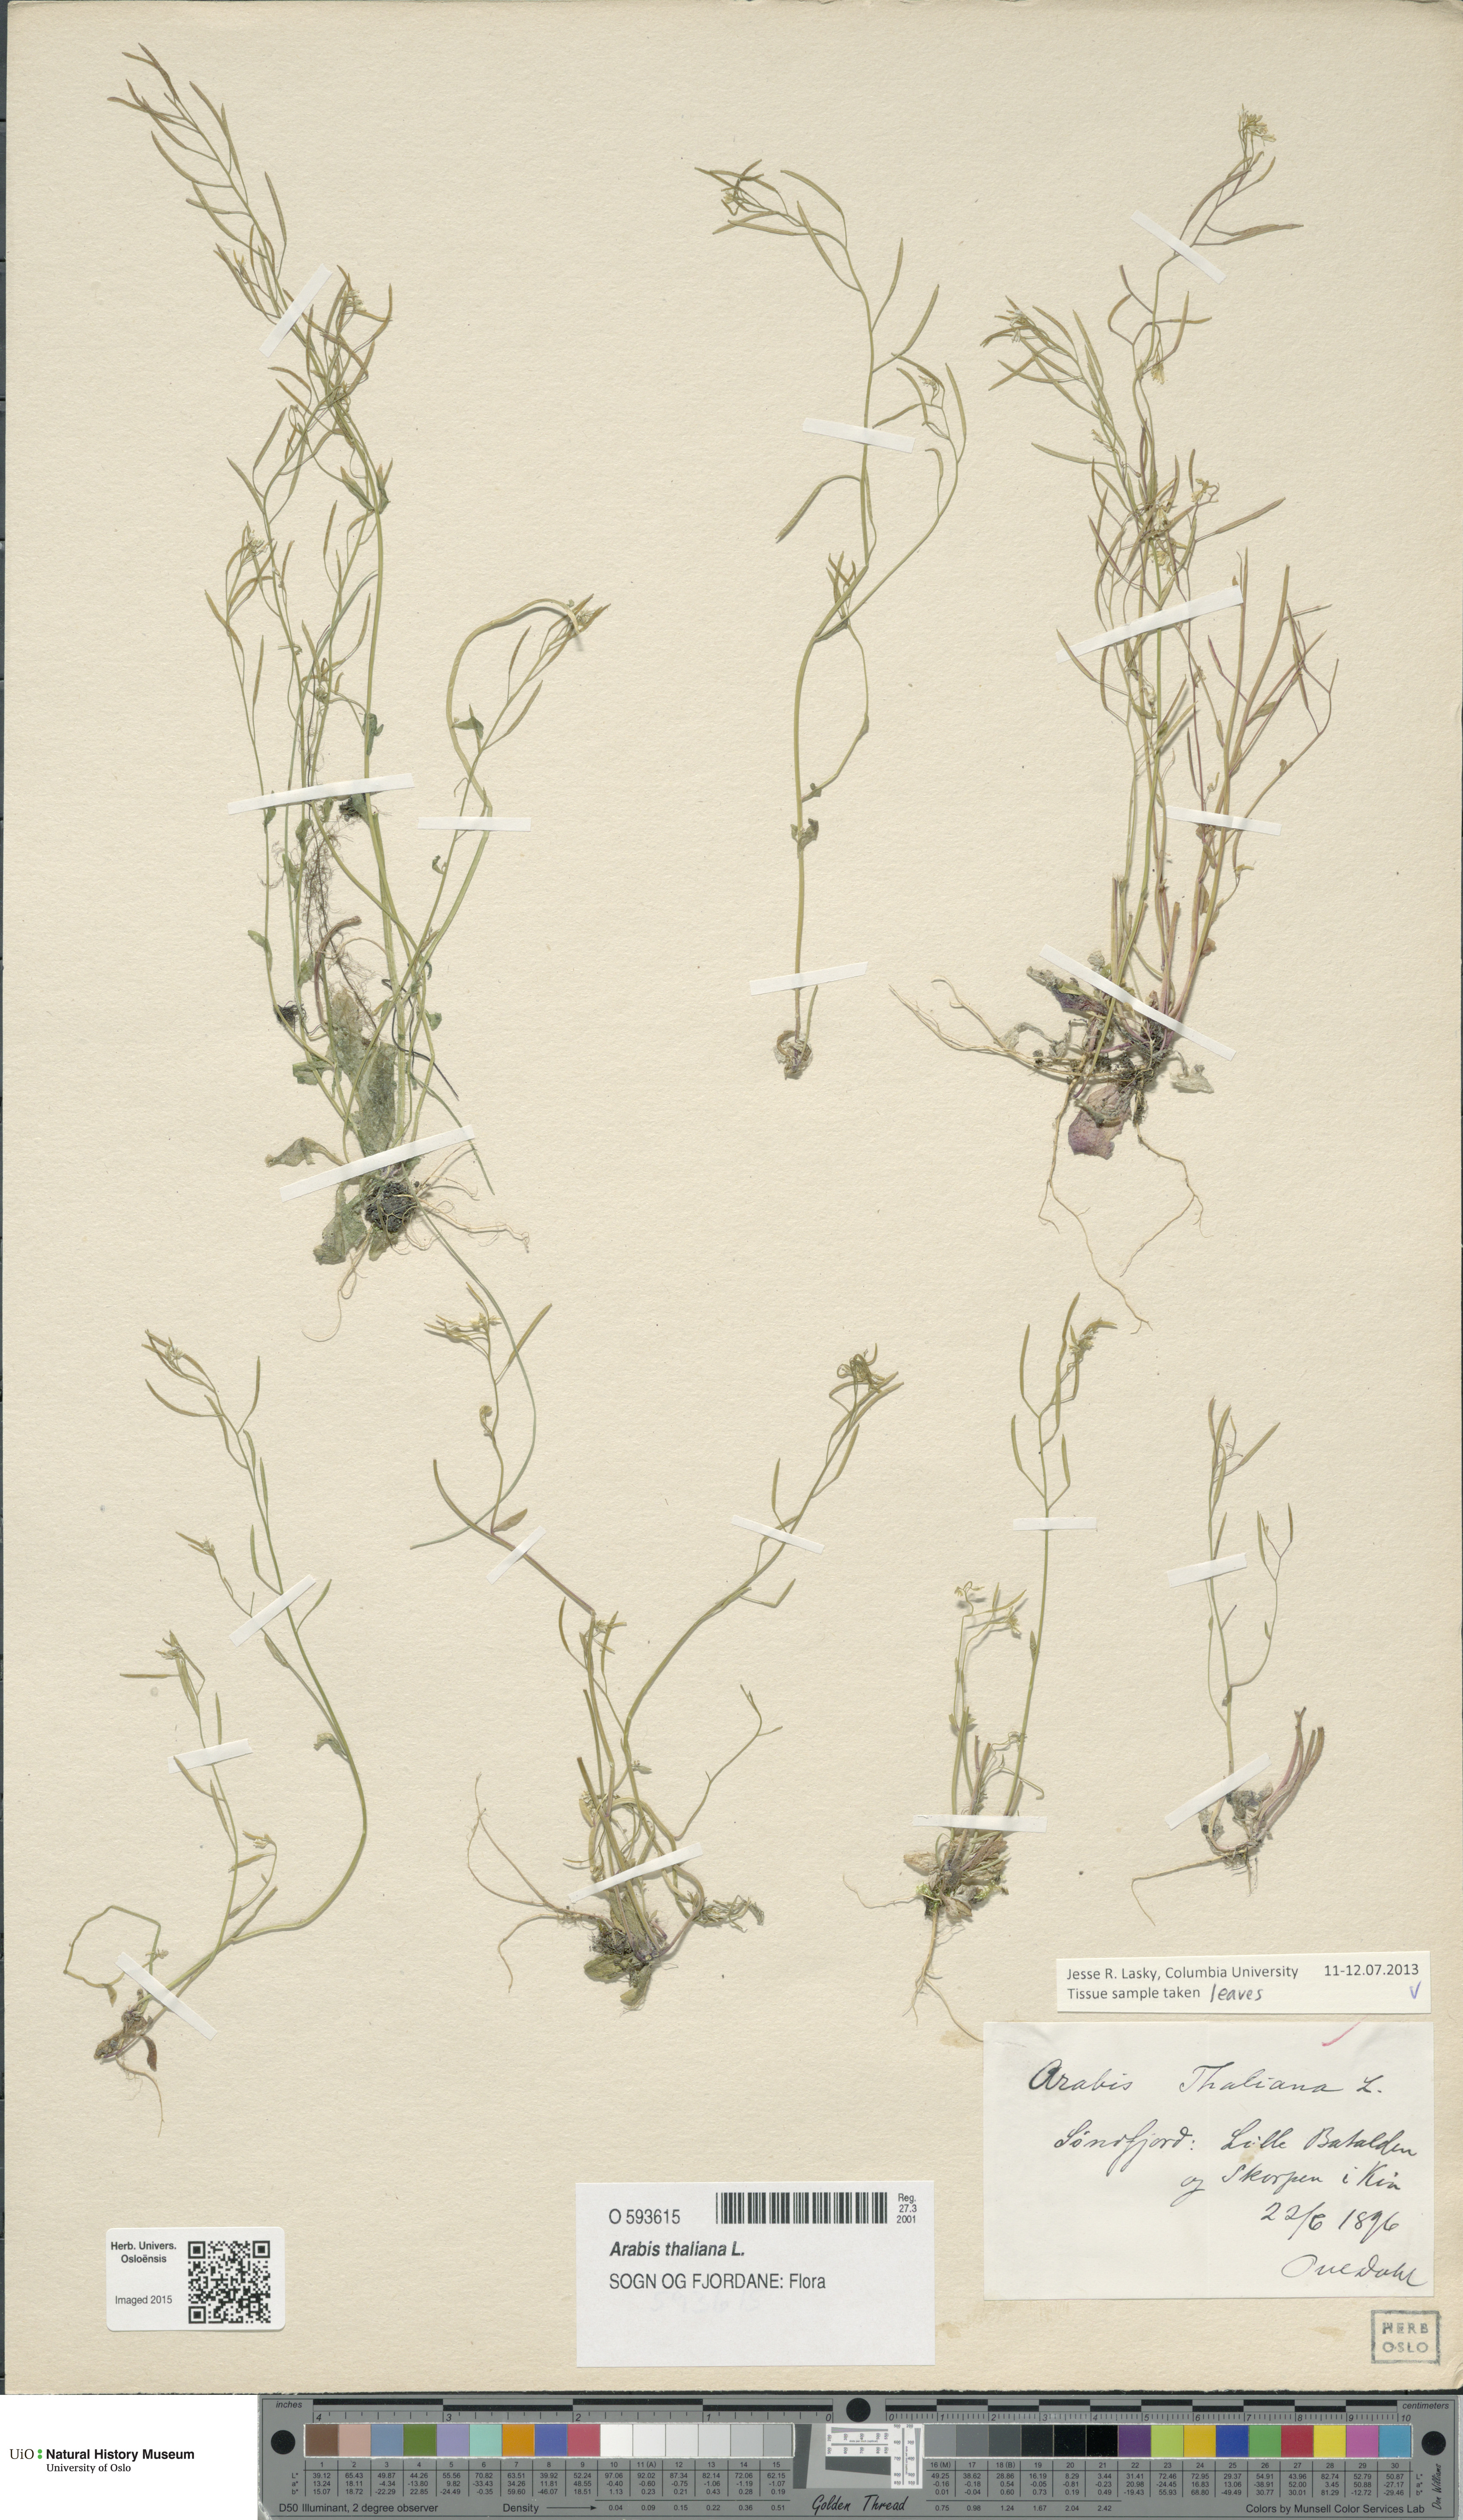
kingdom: Plantae
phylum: Tracheophyta
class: Magnoliopsida
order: Brassicales
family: Brassicaceae
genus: Arabidopsis
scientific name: Arabidopsis thaliana
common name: Thale cress
